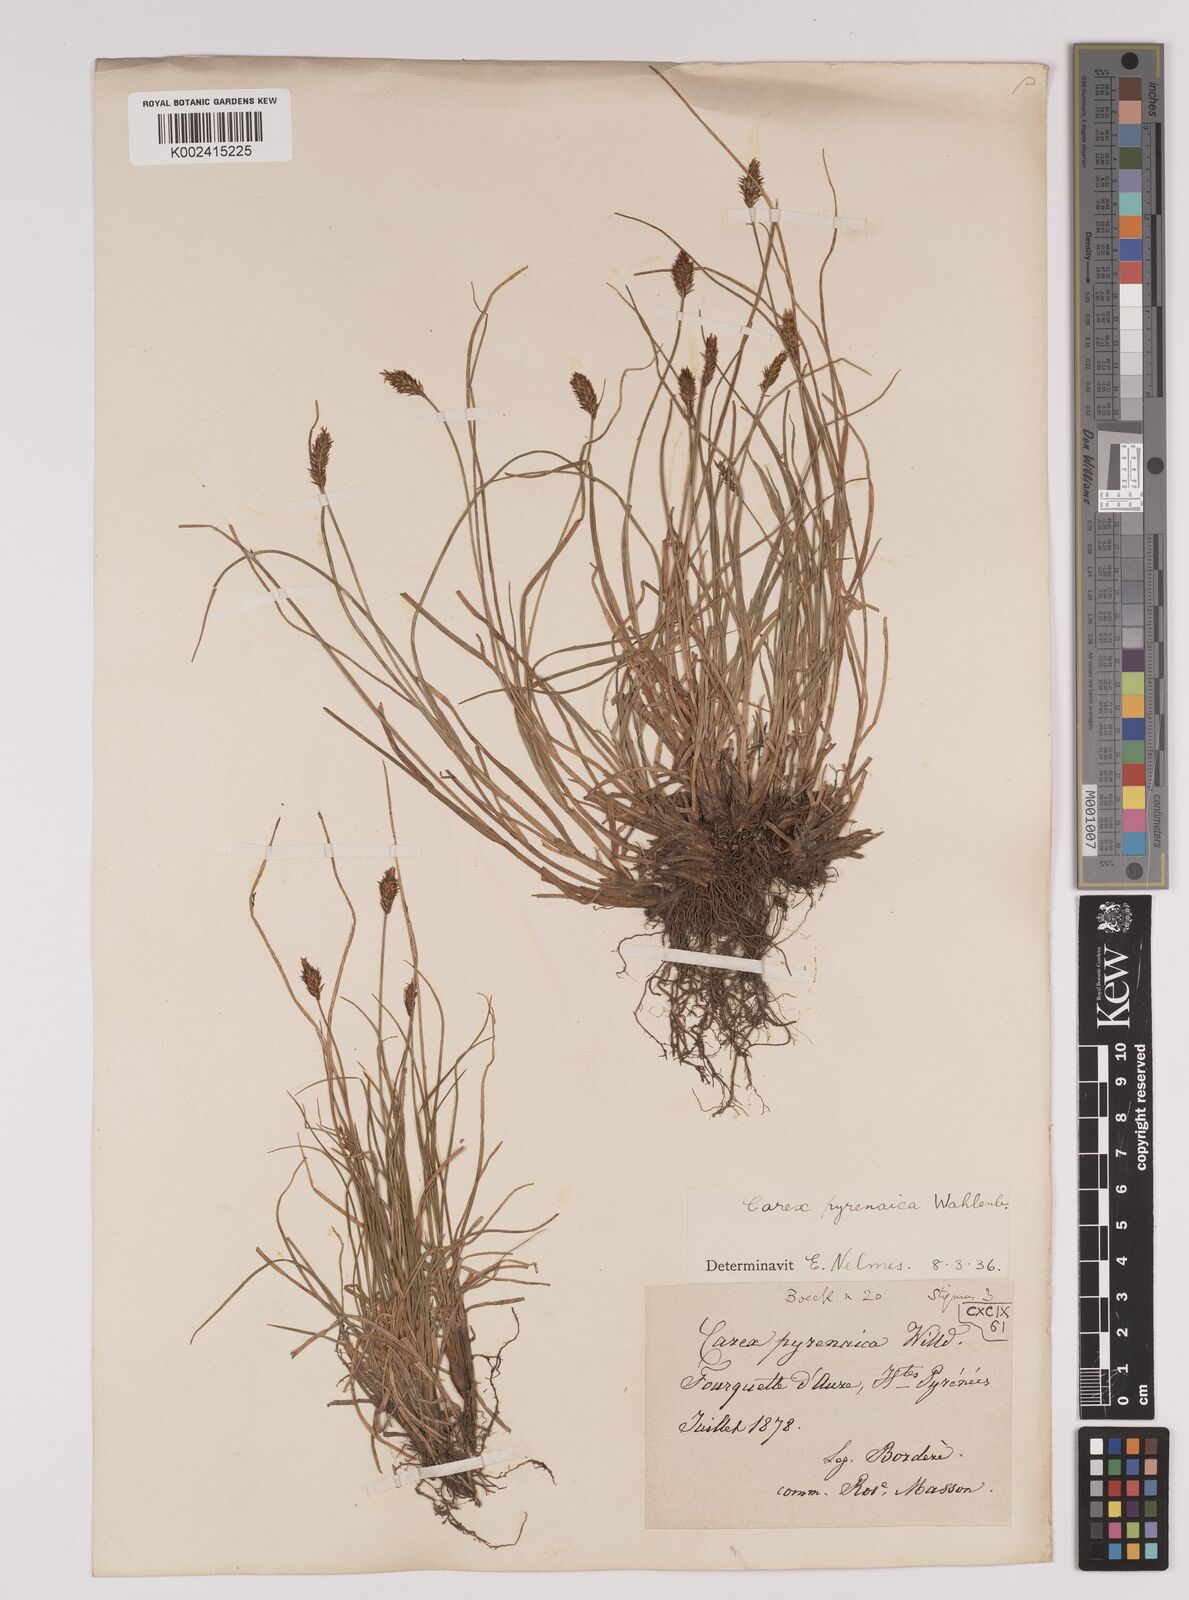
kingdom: Plantae
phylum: Tracheophyta
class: Liliopsida
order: Poales
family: Cyperaceae
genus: Carex
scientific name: Carex pyrenaica
